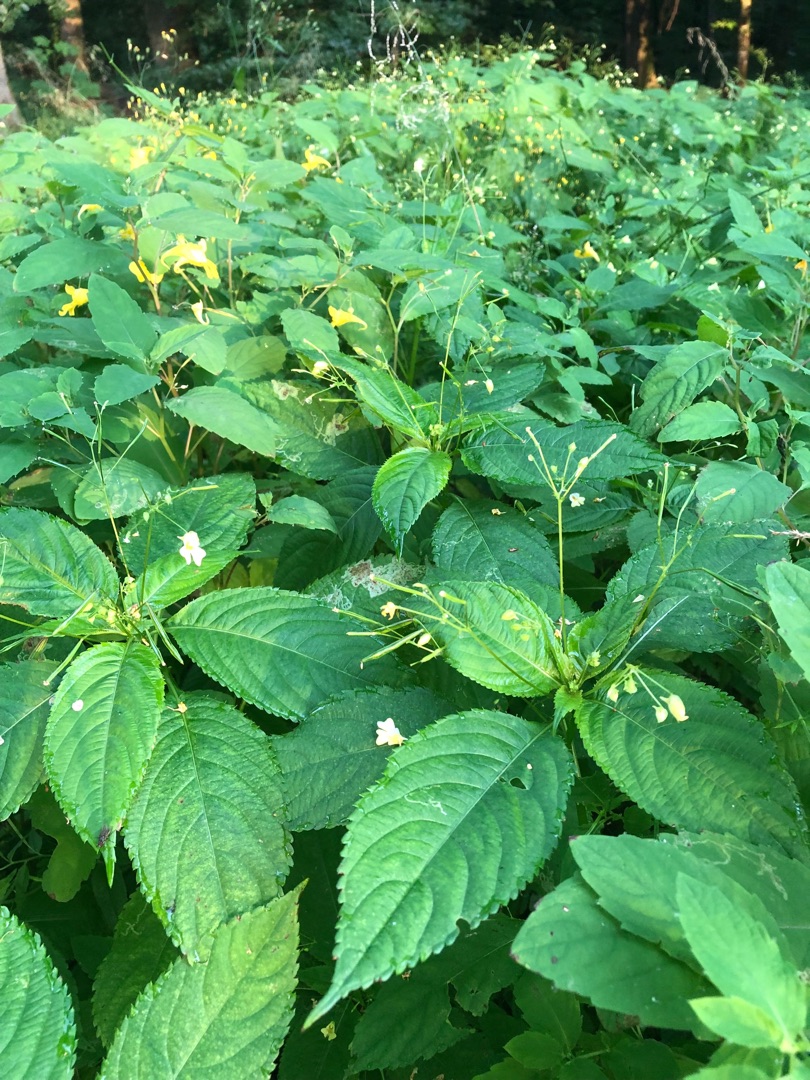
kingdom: Plantae
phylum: Tracheophyta
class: Magnoliopsida
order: Ericales
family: Balsaminaceae
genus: Impatiens
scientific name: Impatiens noli-tangere
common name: Spring-balsamin
